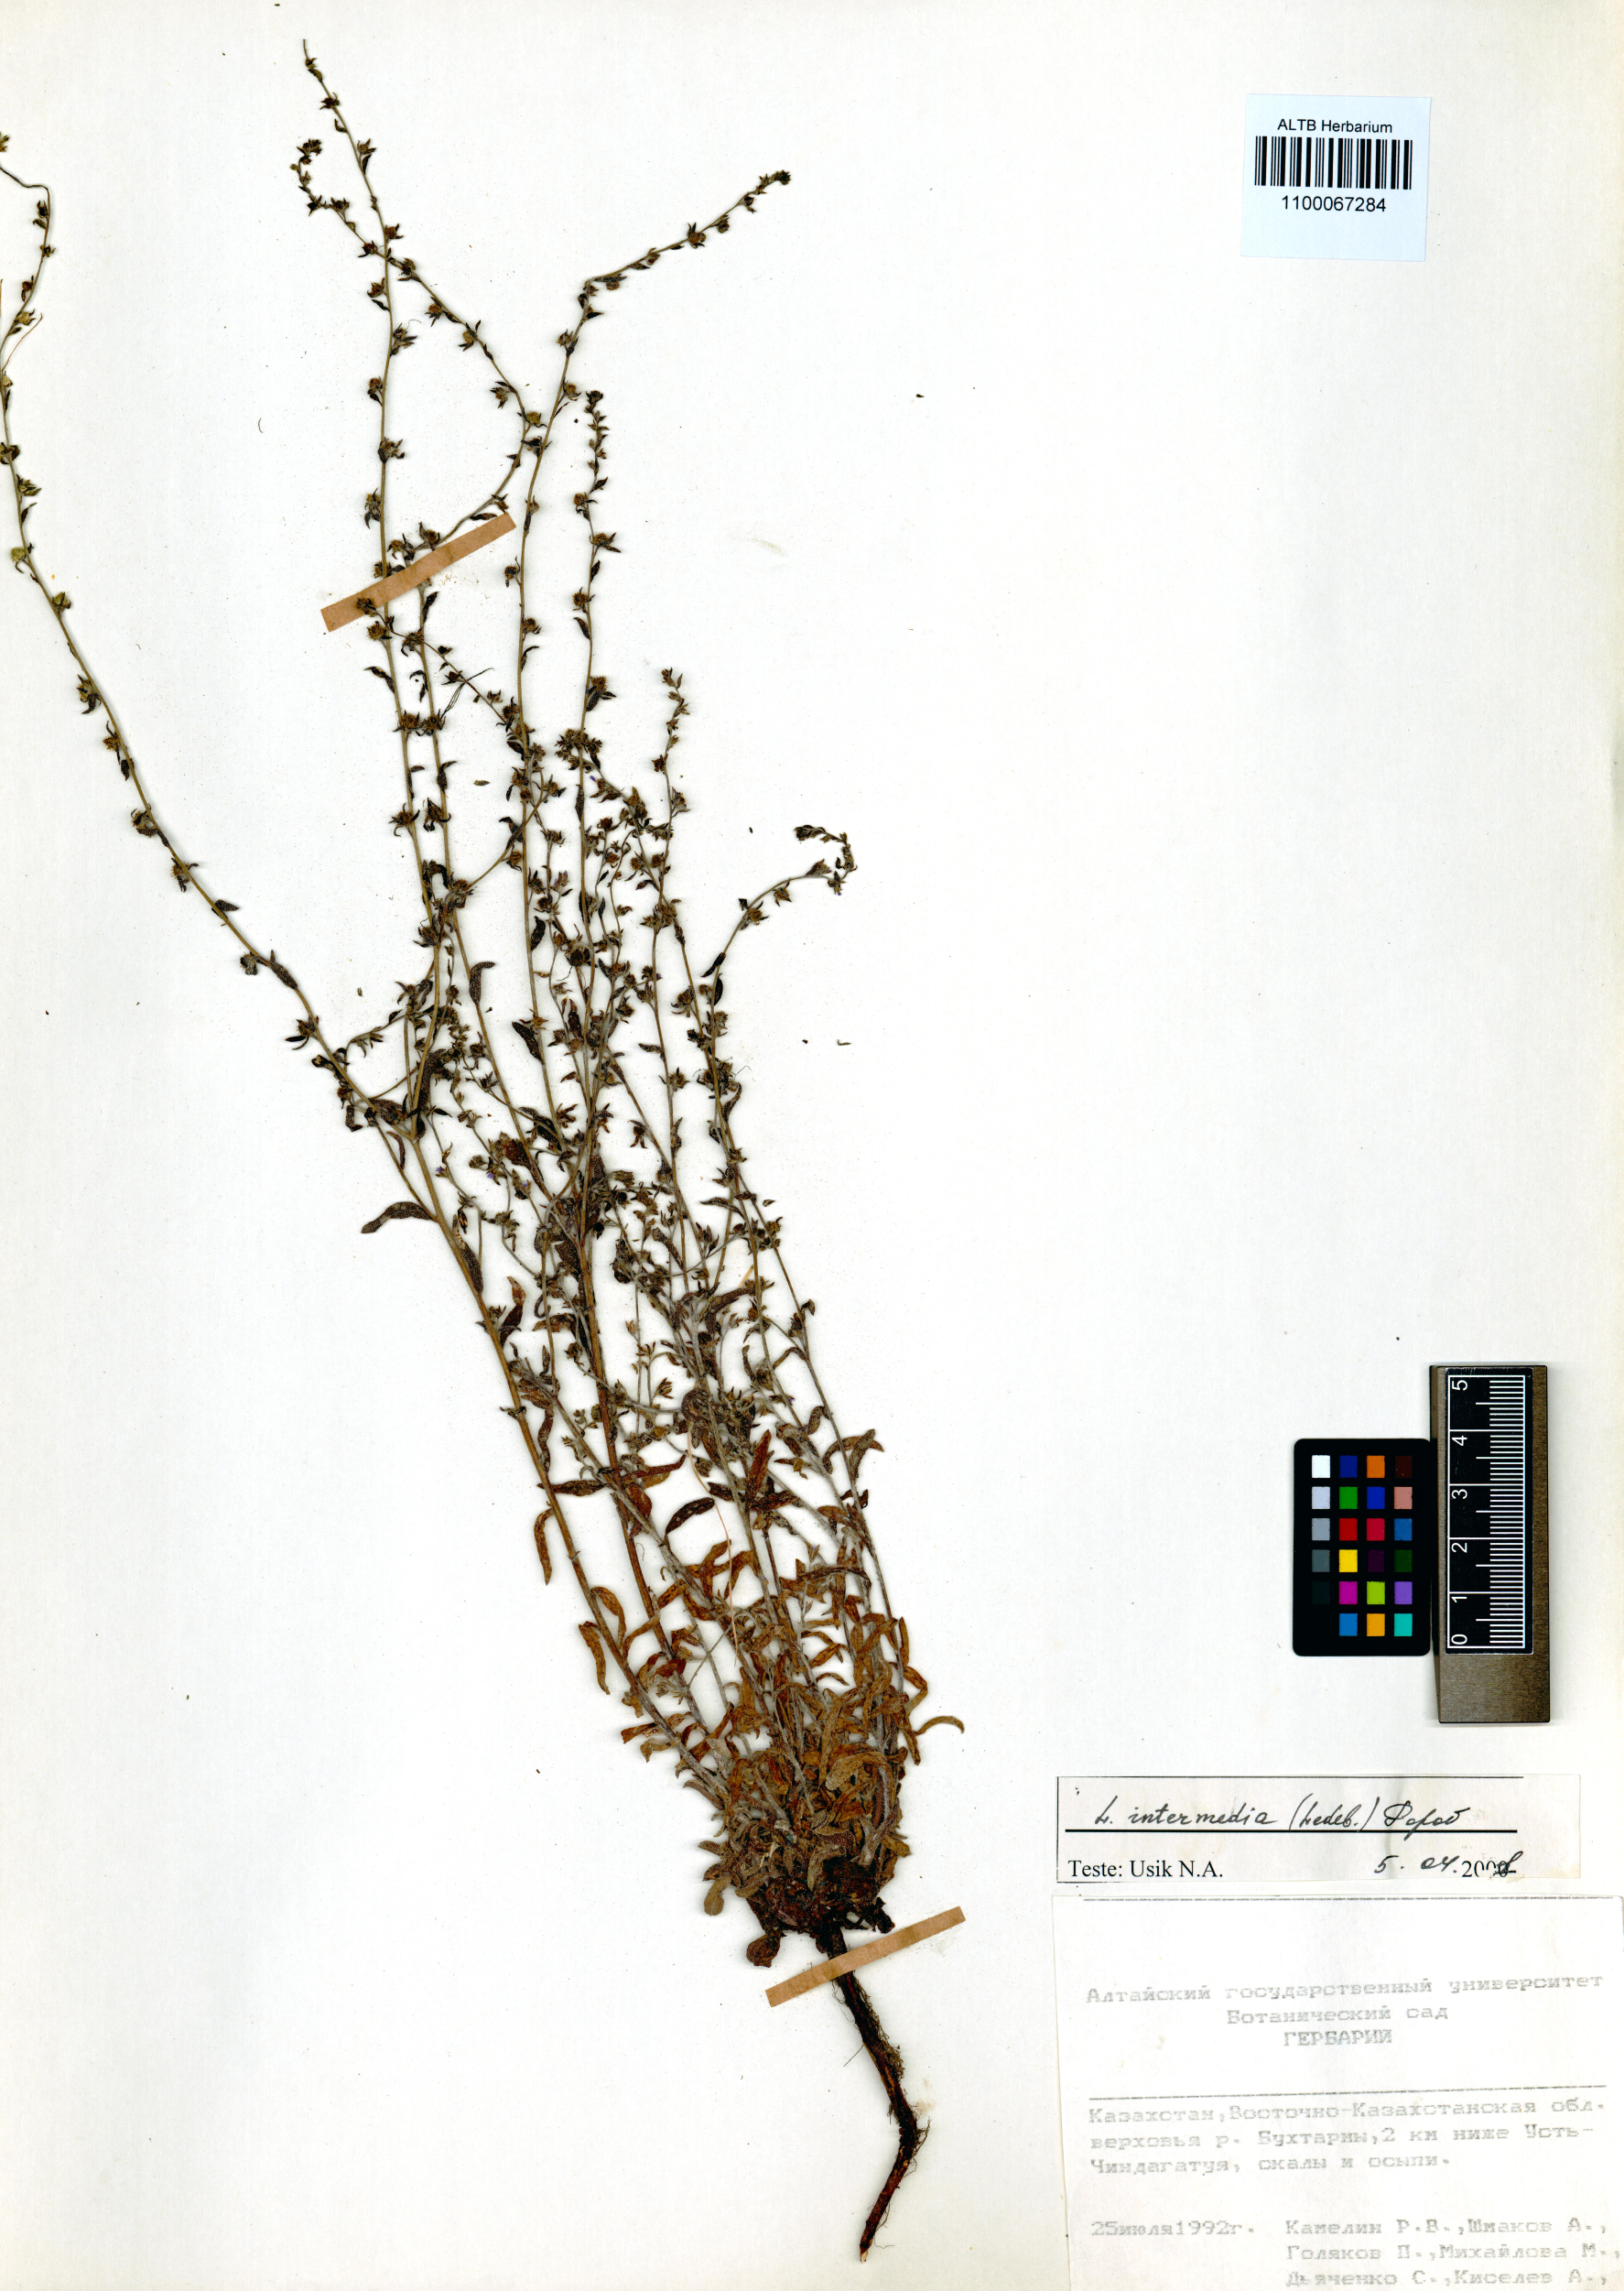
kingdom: Plantae
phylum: Tracheophyta
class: Magnoliopsida
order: Boraginales
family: Boraginaceae
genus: Lappula
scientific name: Lappula intermedia
